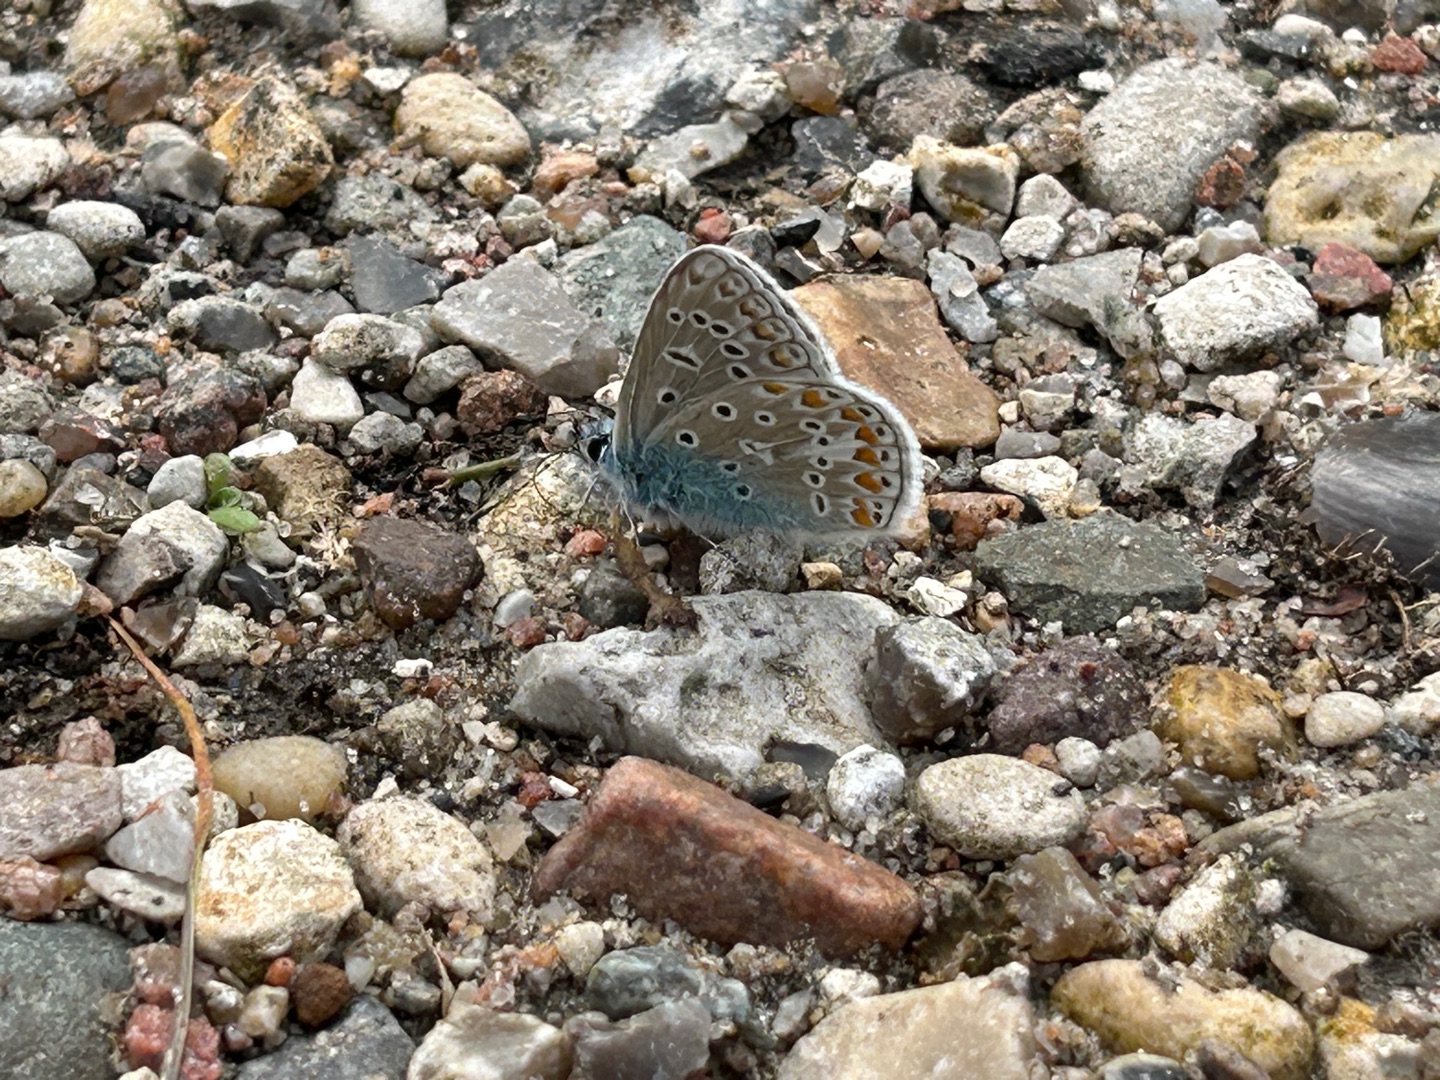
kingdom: Animalia
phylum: Arthropoda
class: Insecta
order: Lepidoptera
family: Lycaenidae
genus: Polyommatus
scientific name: Polyommatus icarus
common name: Almindelig blåfugl
